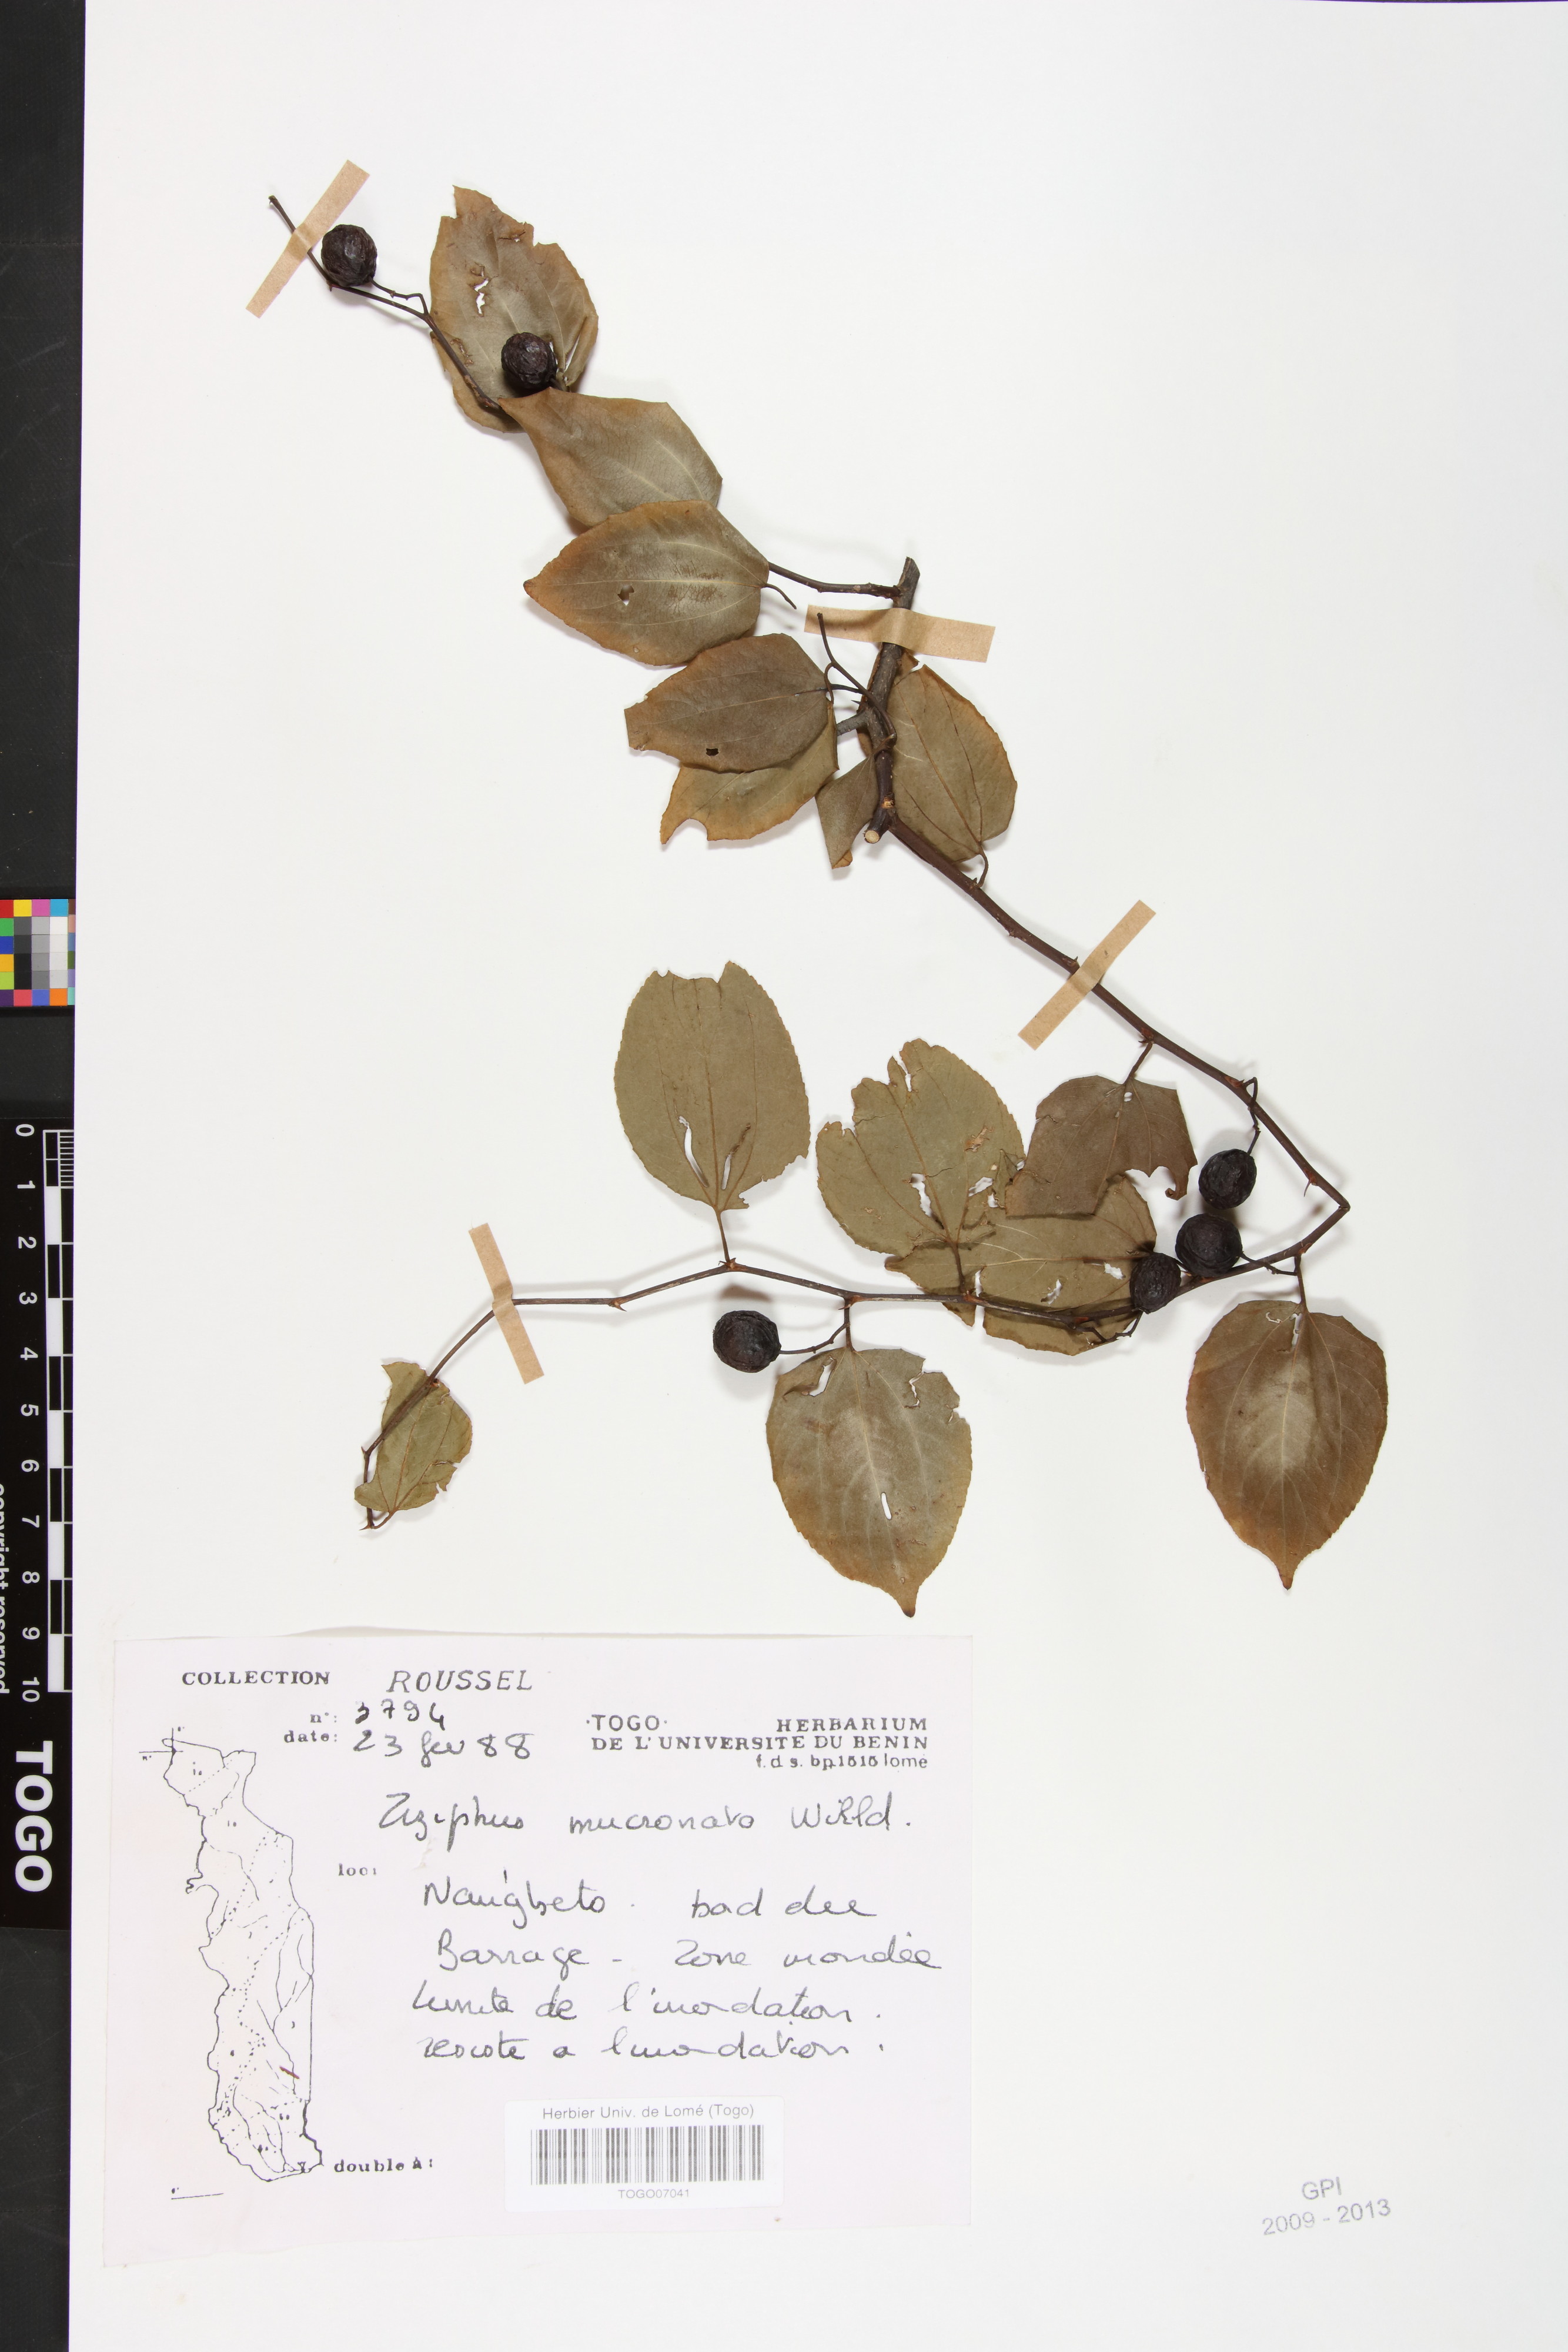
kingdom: Plantae
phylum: Tracheophyta
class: Magnoliopsida
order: Rosales
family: Rhamnaceae
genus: Ziziphus
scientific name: Ziziphus mucronata
